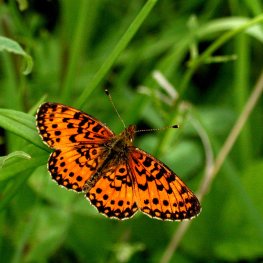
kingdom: Animalia
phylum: Arthropoda
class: Insecta
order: Lepidoptera
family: Nymphalidae
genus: Boloria
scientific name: Boloria selene
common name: Silver-bordered Fritillary
